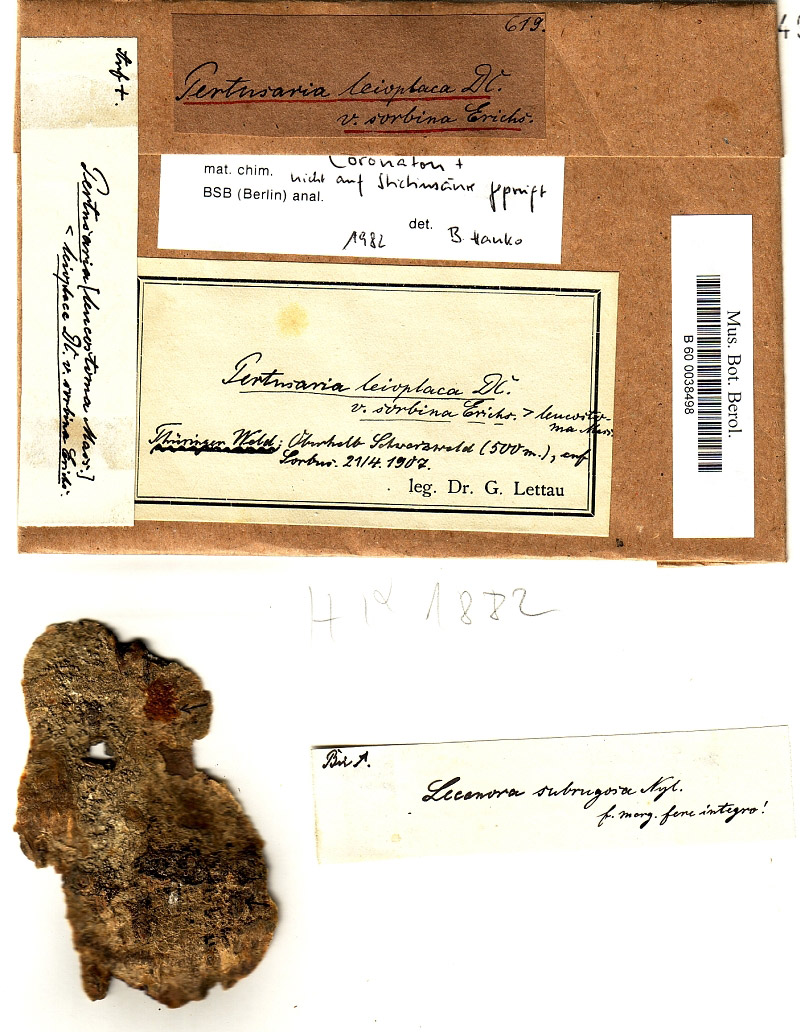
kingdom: Fungi
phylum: Ascomycota
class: Lecanoromycetes
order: Lecanorales
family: Lecanoraceae
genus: Lecanora
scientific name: Lecanora subrugosa
